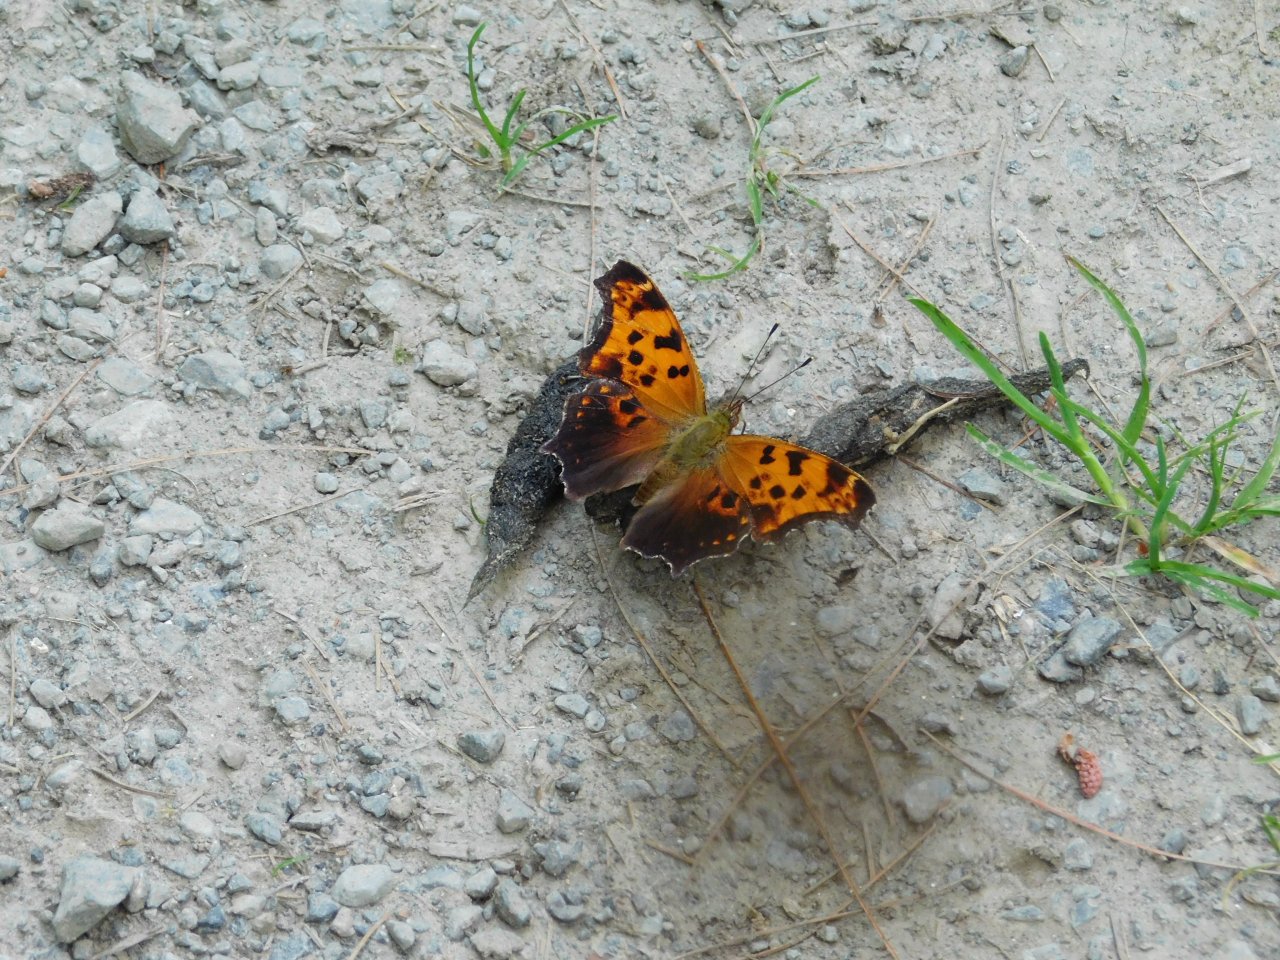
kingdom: Animalia
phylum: Arthropoda
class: Insecta
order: Lepidoptera
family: Nymphalidae
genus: Polygonia
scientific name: Polygonia comma
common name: Eastern Comma
